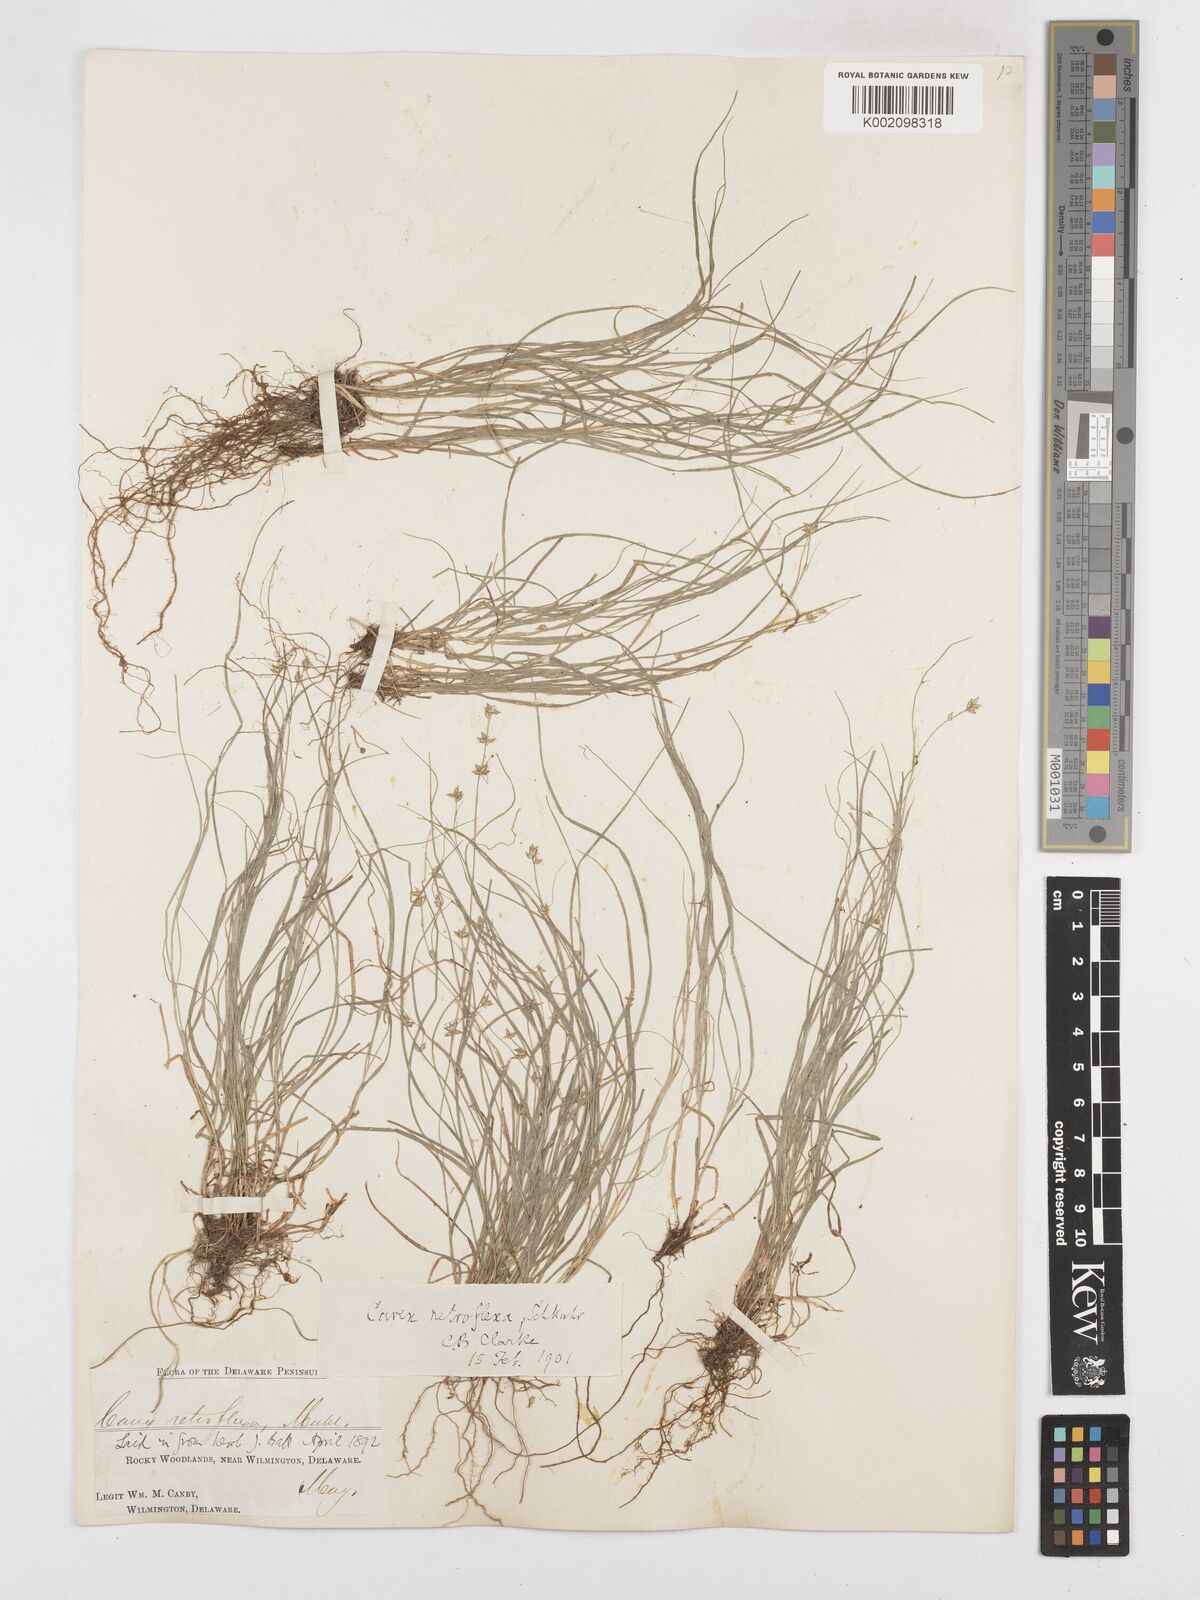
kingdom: Plantae
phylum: Tracheophyta
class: Liliopsida
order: Poales
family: Cyperaceae
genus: Carex
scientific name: Carex retroflexa
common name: Reflexed sedge
